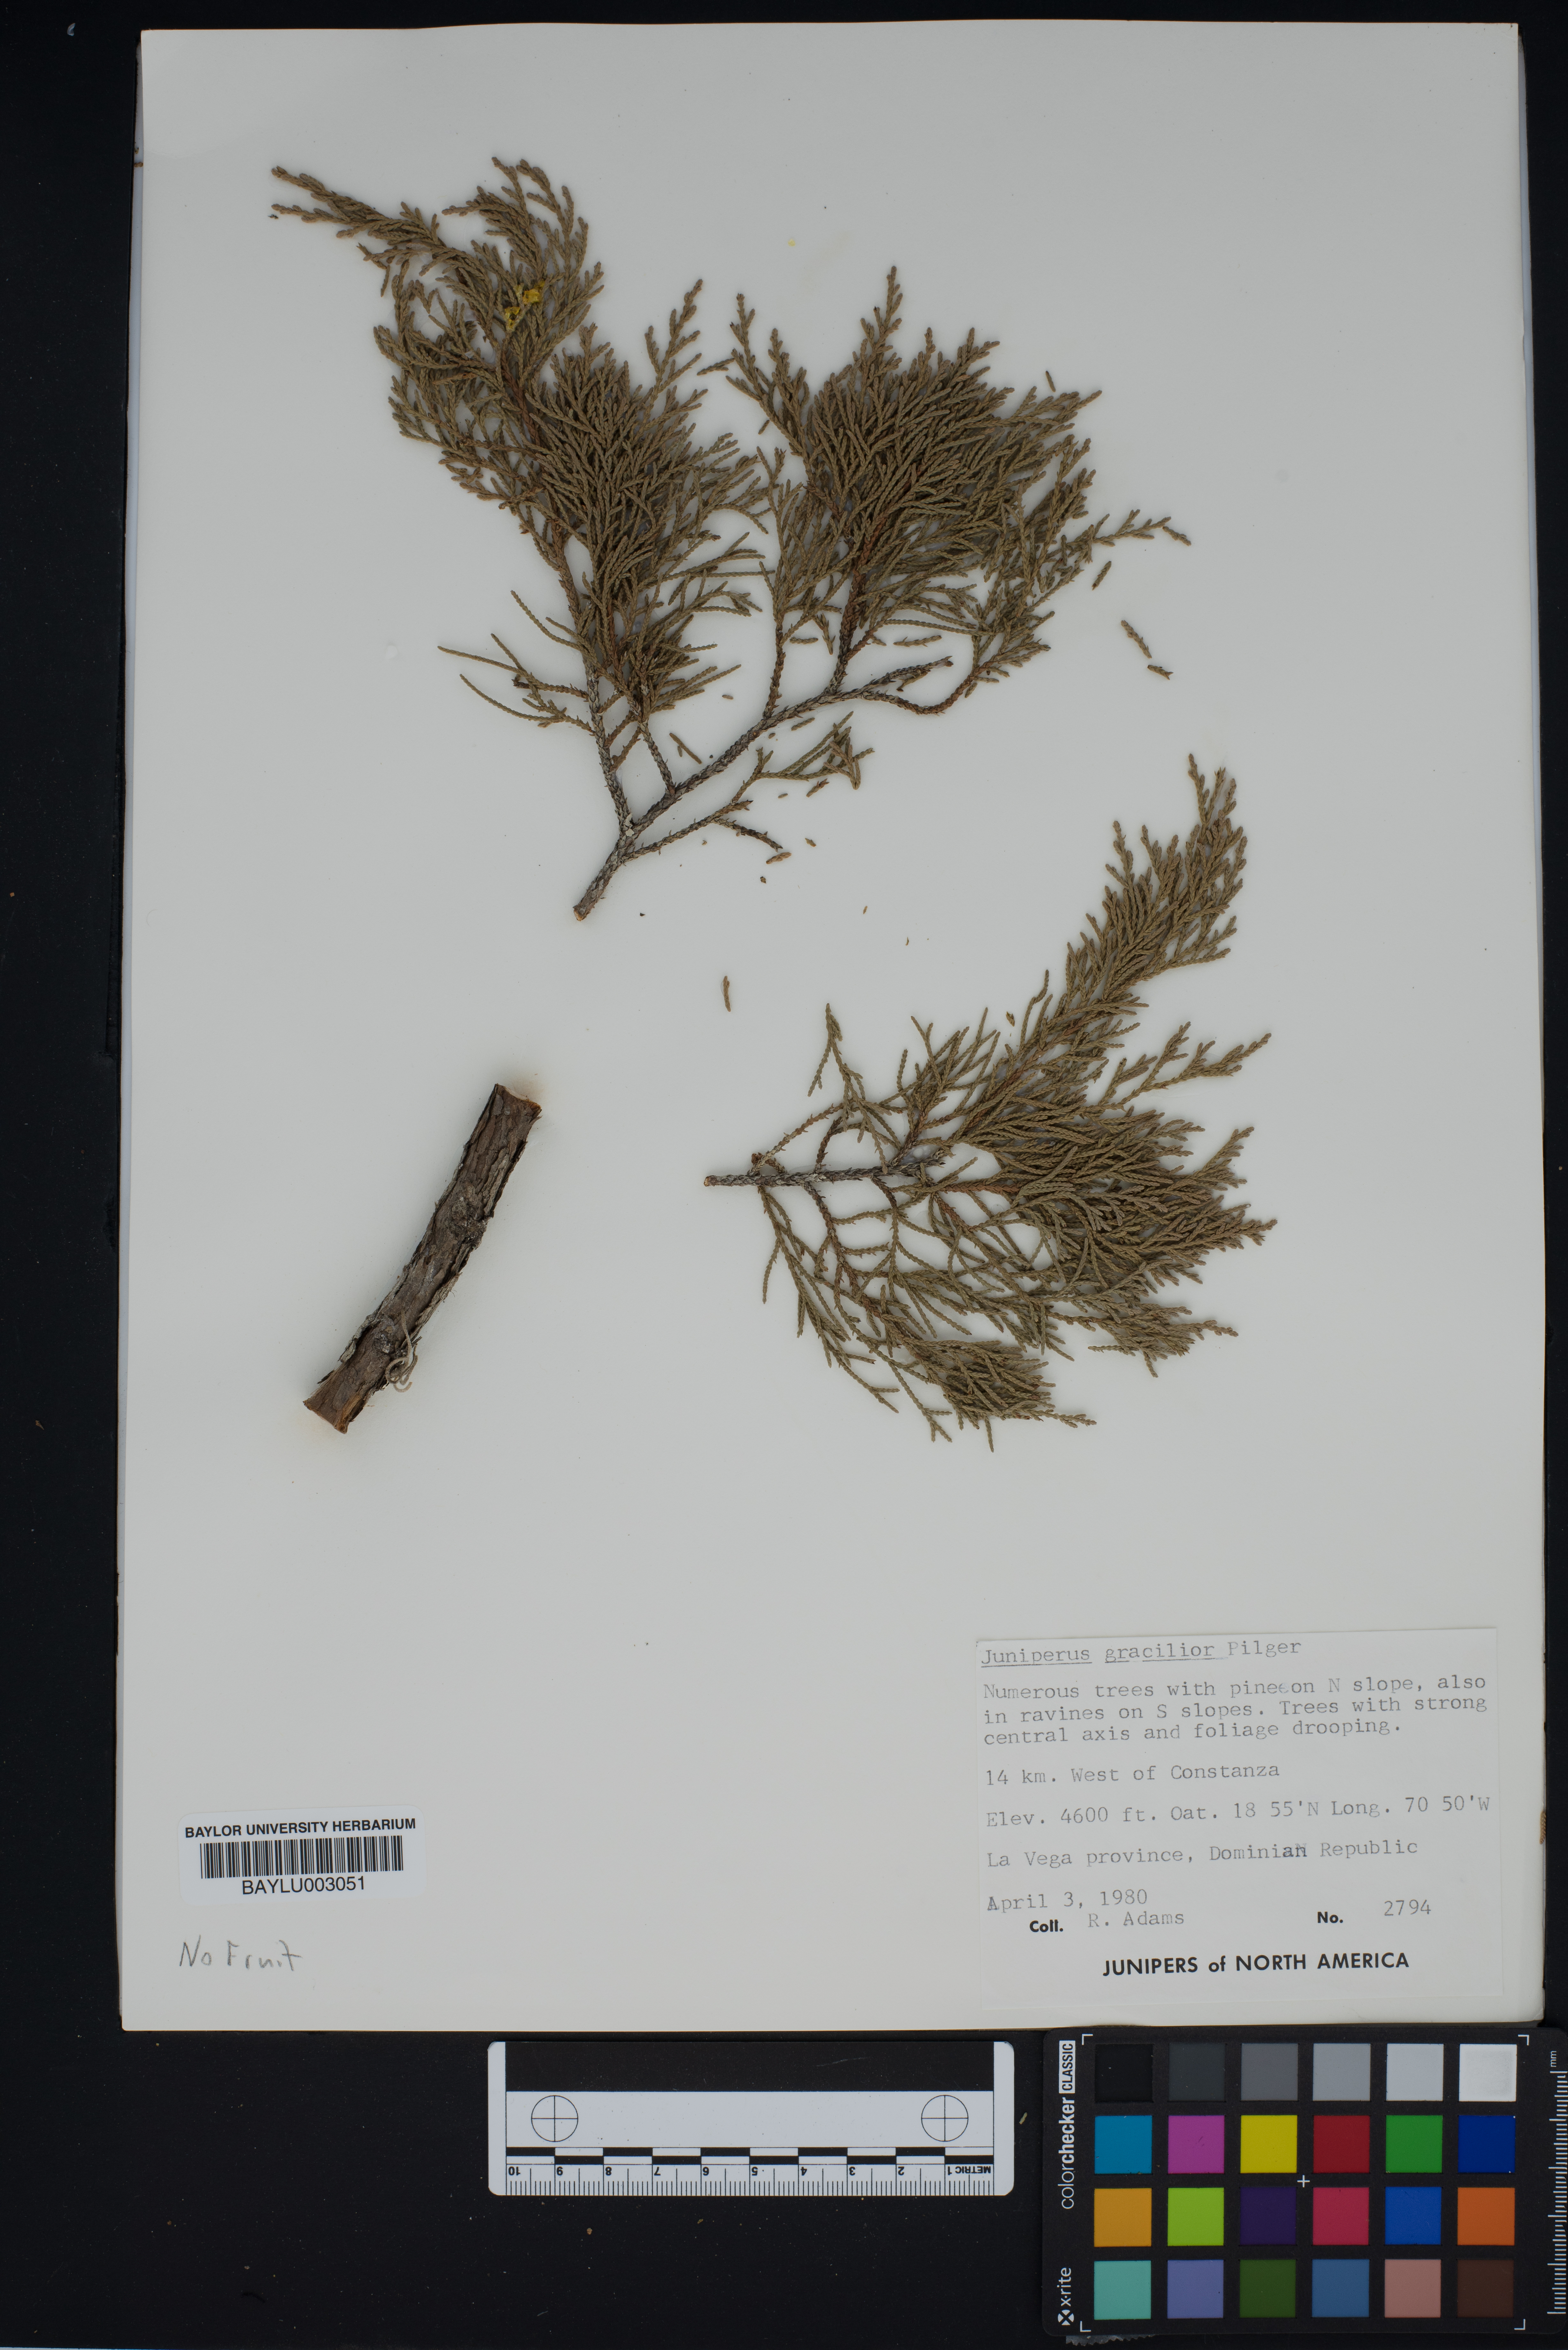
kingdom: Plantae
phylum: Tracheophyta
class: Pinopsida
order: Pinales
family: Cupressaceae
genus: Juniperus
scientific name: Juniperus gracilior
